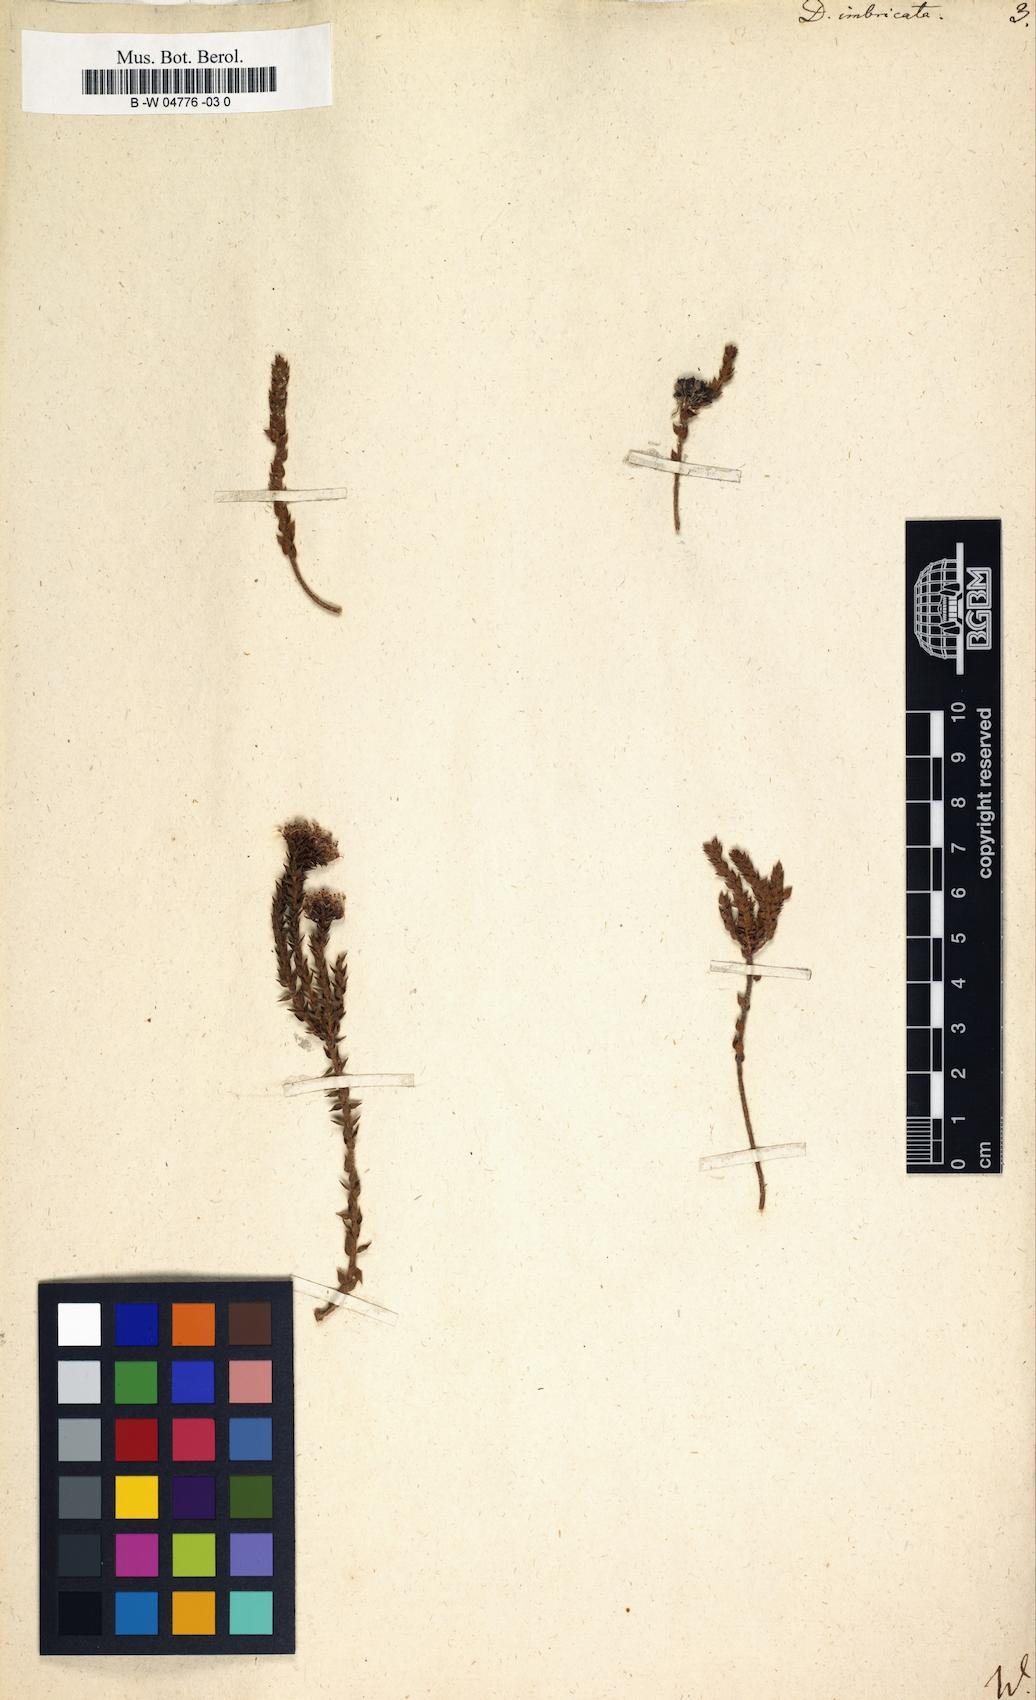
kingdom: Plantae
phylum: Tracheophyta
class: Magnoliopsida
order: Sapindales
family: Rutaceae
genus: Agathosma
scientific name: Agathosma imbricata
